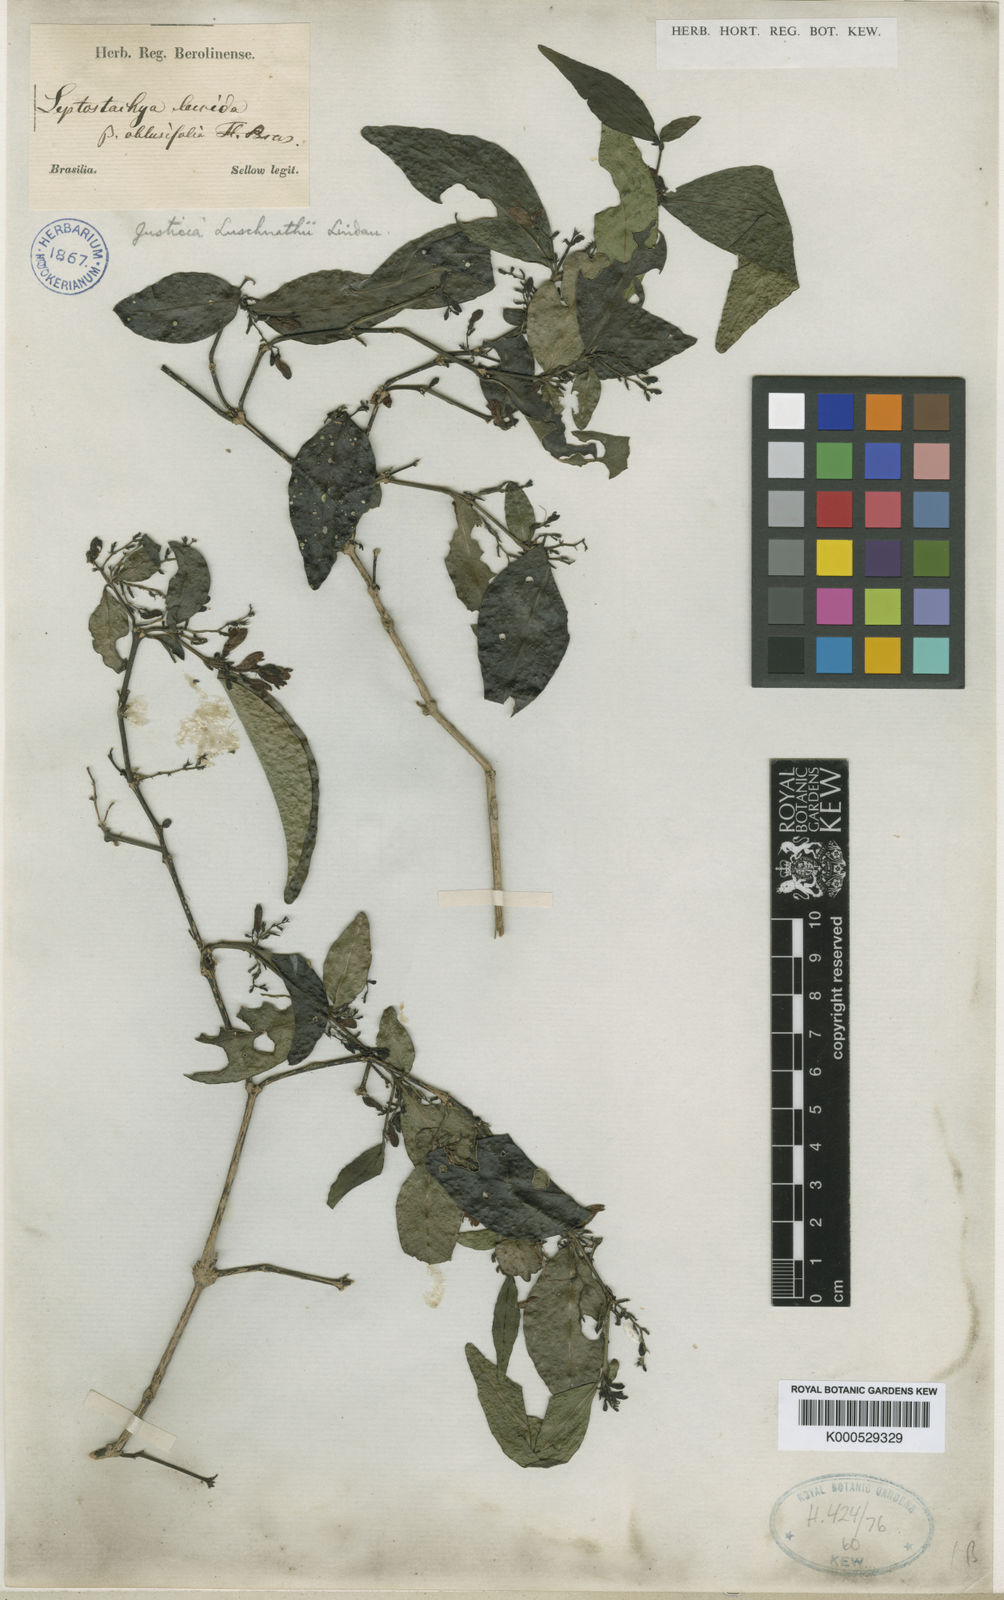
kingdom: Plantae
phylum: Tracheophyta
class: Magnoliopsida
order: Lamiales
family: Acanthaceae
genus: Justicia
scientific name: Justicia luschnathii
